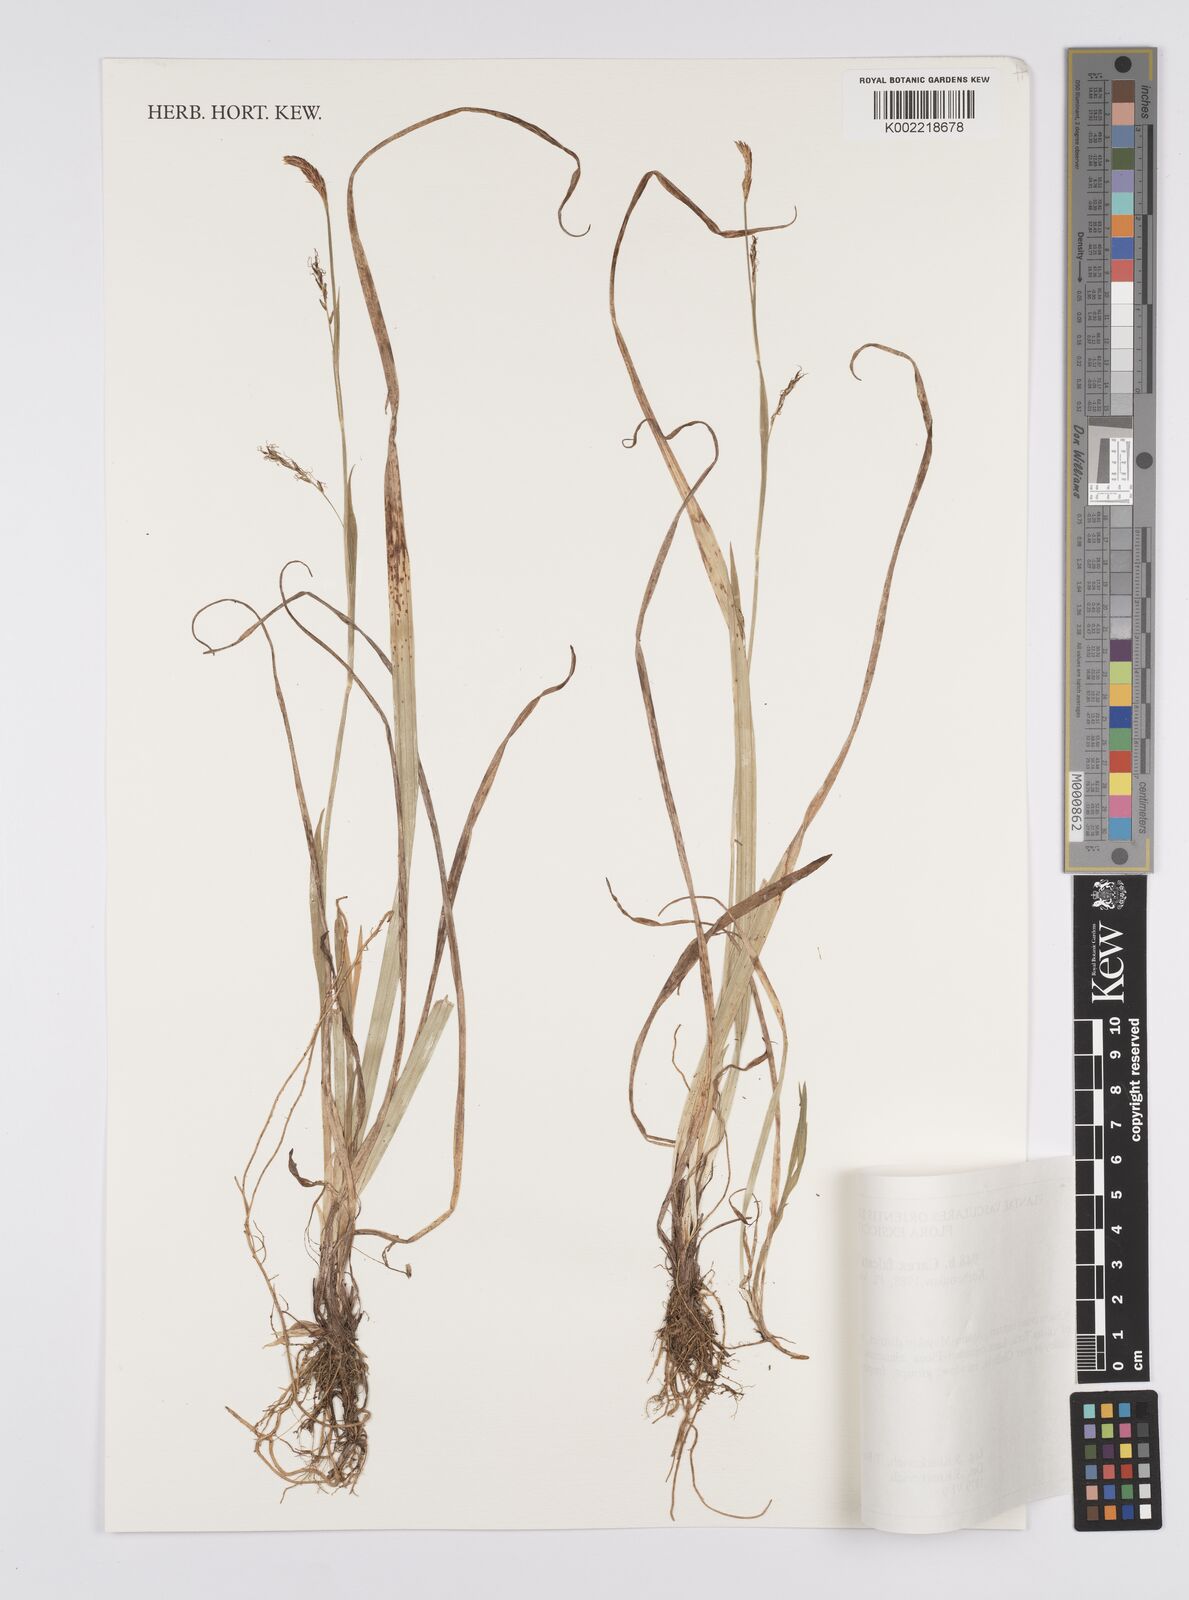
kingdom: Plantae
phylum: Tracheophyta
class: Liliopsida
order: Poales
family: Cyperaceae
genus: Carex
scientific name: Carex vaginata
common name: Sheathed sedge
